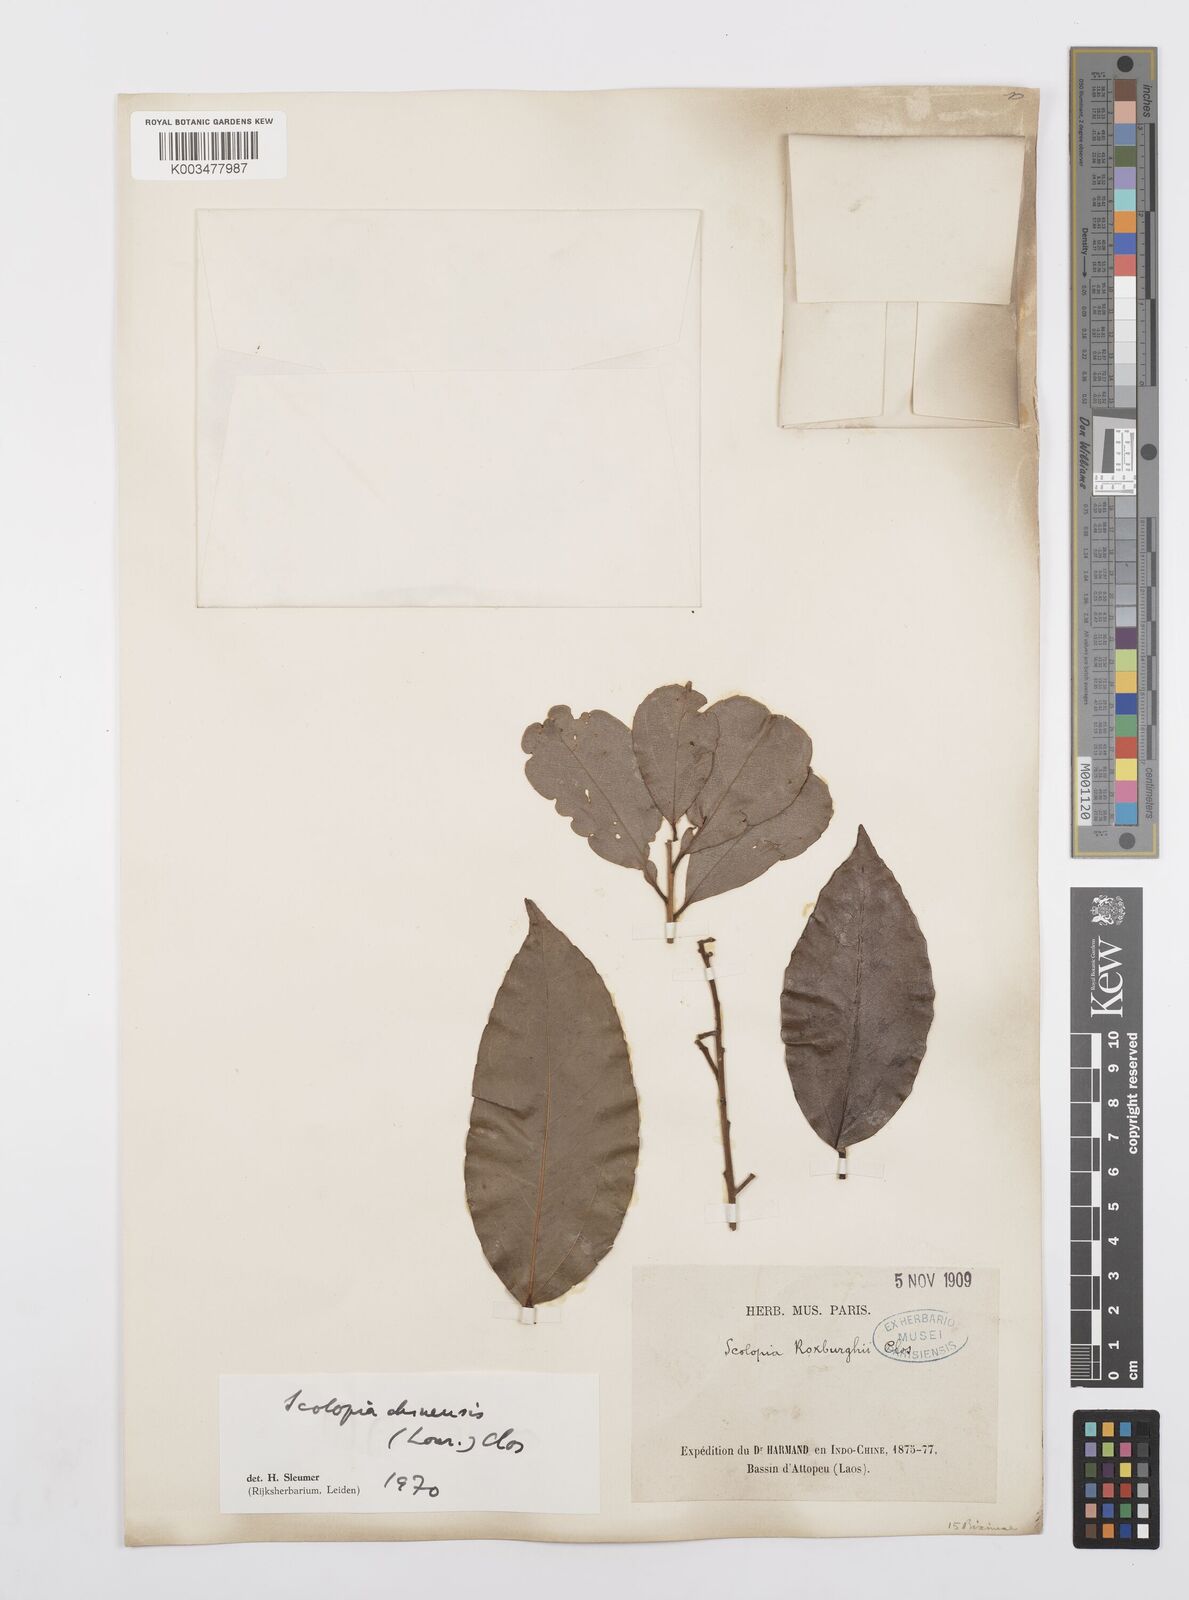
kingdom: Plantae
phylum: Tracheophyta
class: Magnoliopsida
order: Malpighiales
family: Salicaceae
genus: Scolopia
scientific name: Scolopia spinosa
